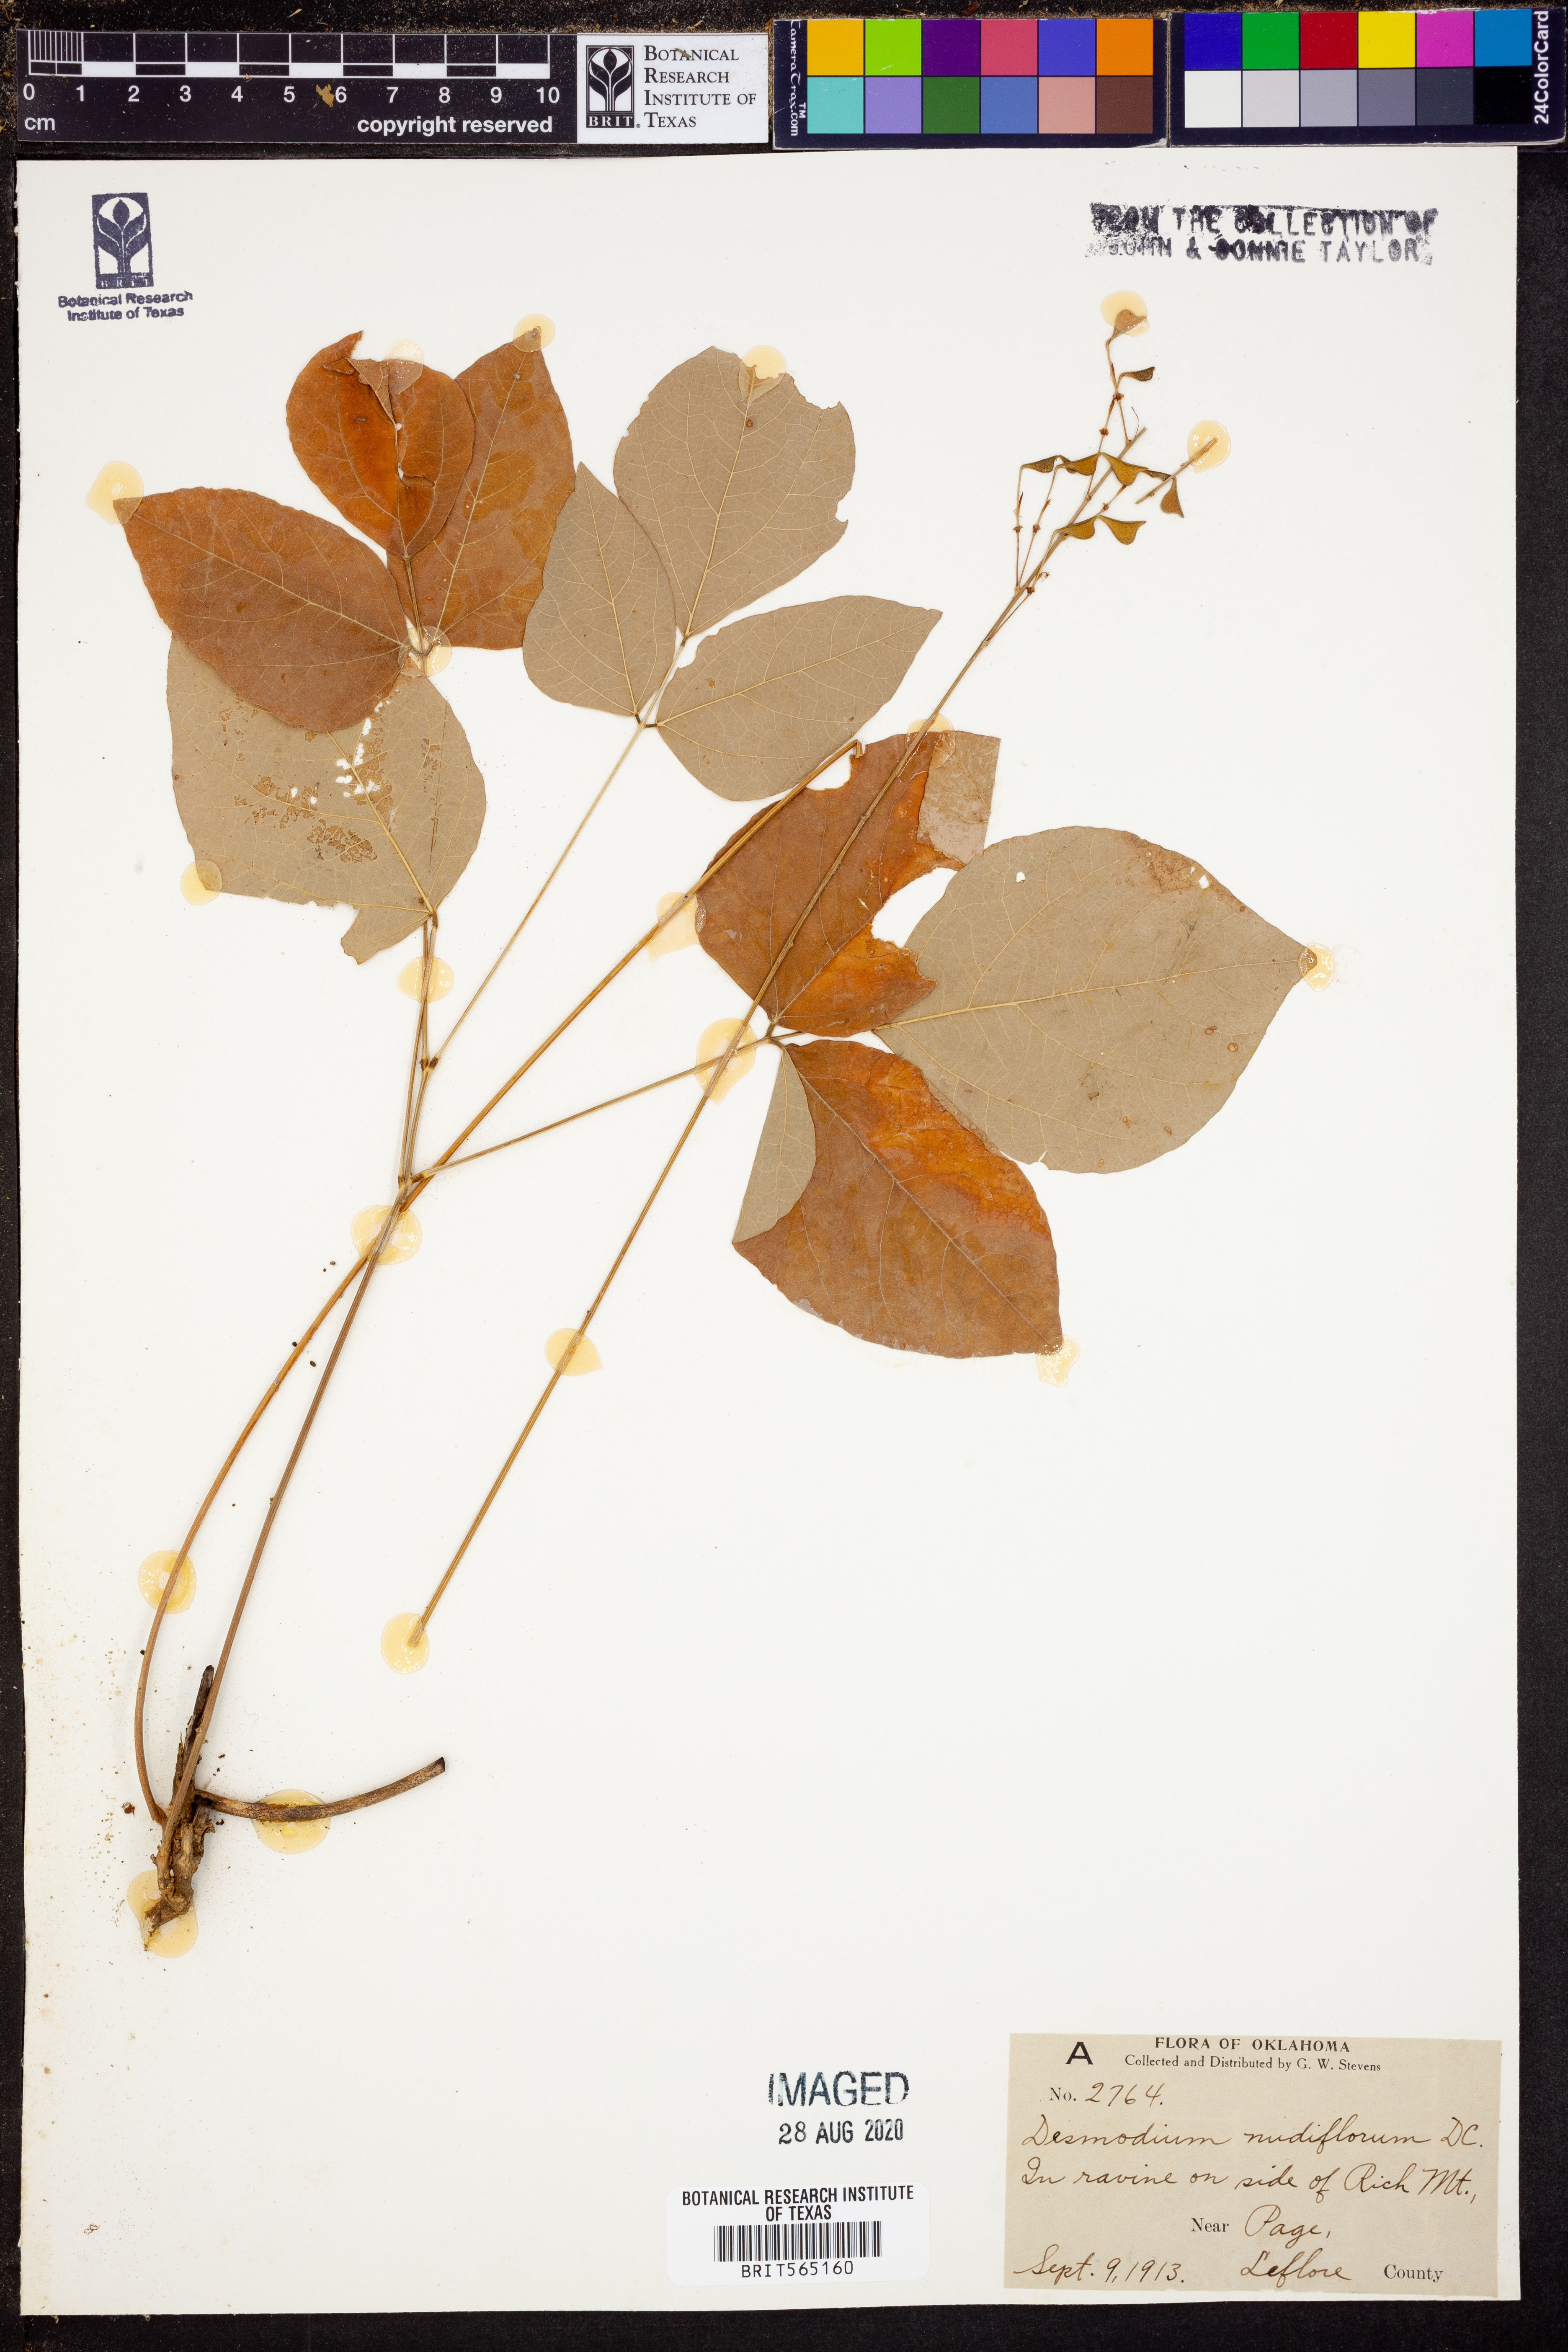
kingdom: Plantae
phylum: Tracheophyta
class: Magnoliopsida
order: Fabales
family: Fabaceae
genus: Hylodesmum
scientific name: Hylodesmum nudiflorum
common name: Bare-stemmed tick-trefoil
